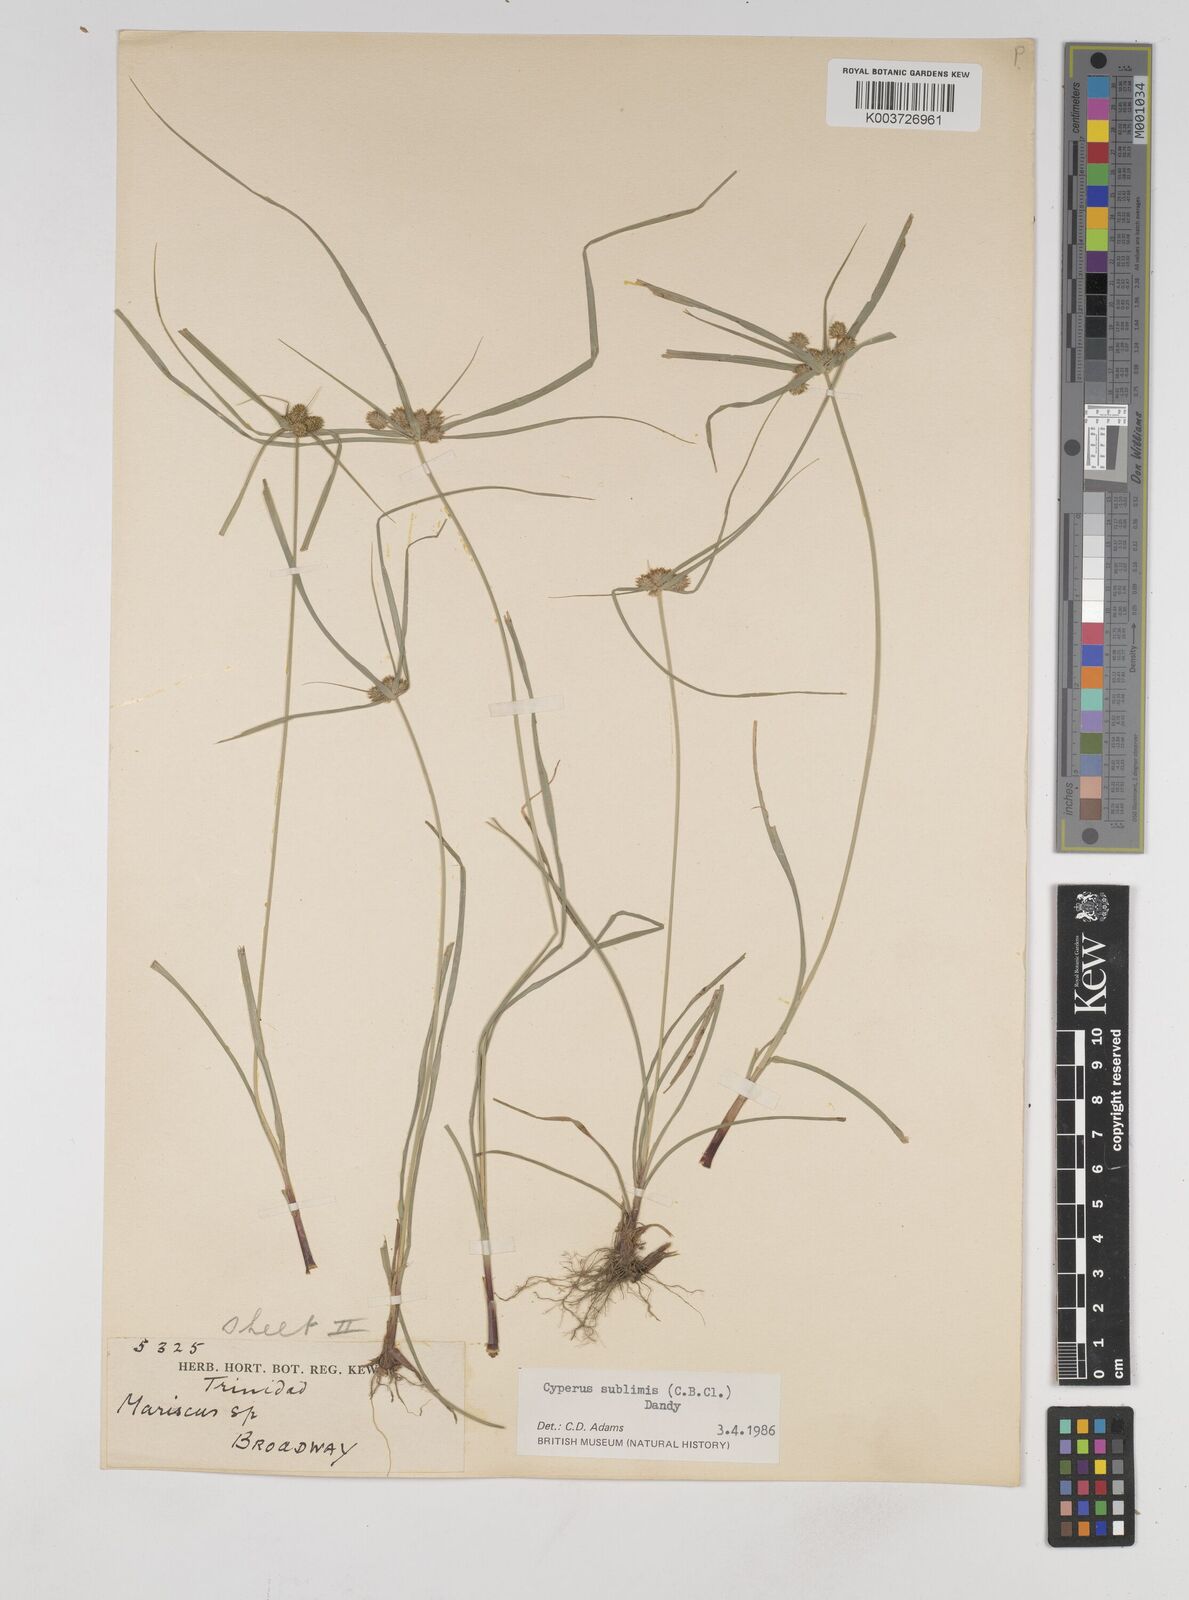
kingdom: Plantae
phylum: Tracheophyta
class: Liliopsida
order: Poales
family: Cyperaceae
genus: Cyperus
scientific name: Cyperus cyperoides
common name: Pacific island flat sedge
